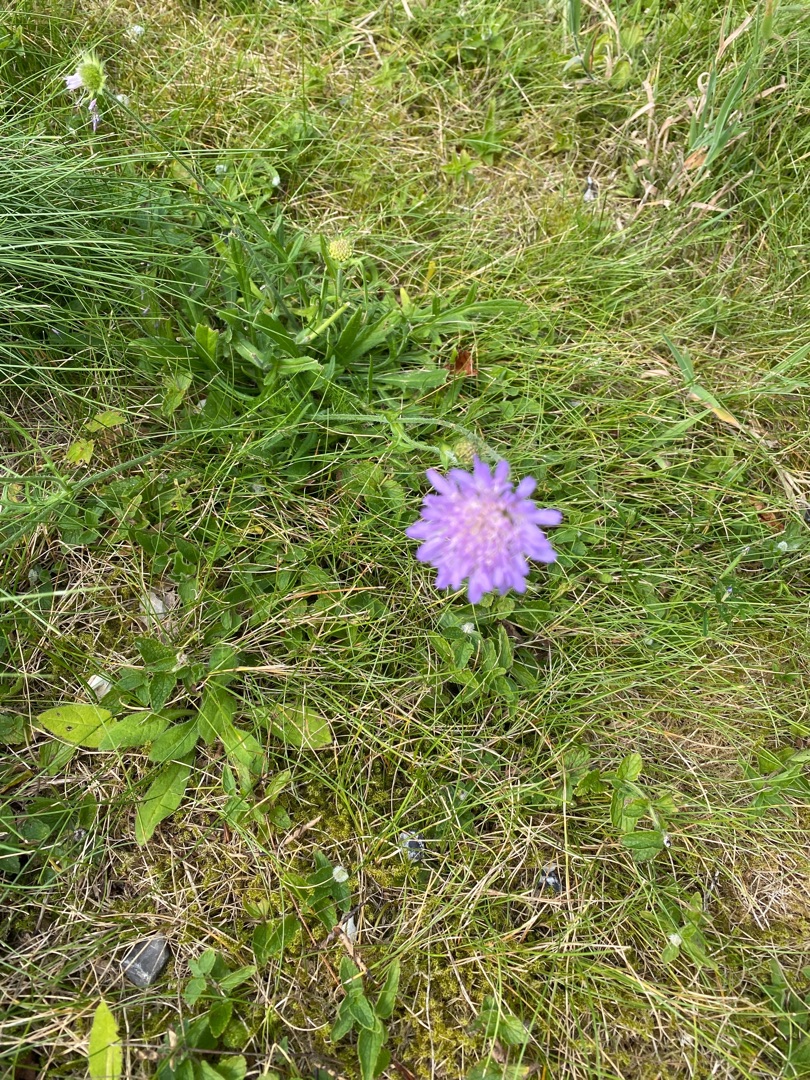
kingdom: Plantae
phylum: Tracheophyta
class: Magnoliopsida
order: Dipsacales
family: Caprifoliaceae
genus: Knautia
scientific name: Knautia arvensis
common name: Blåhat
